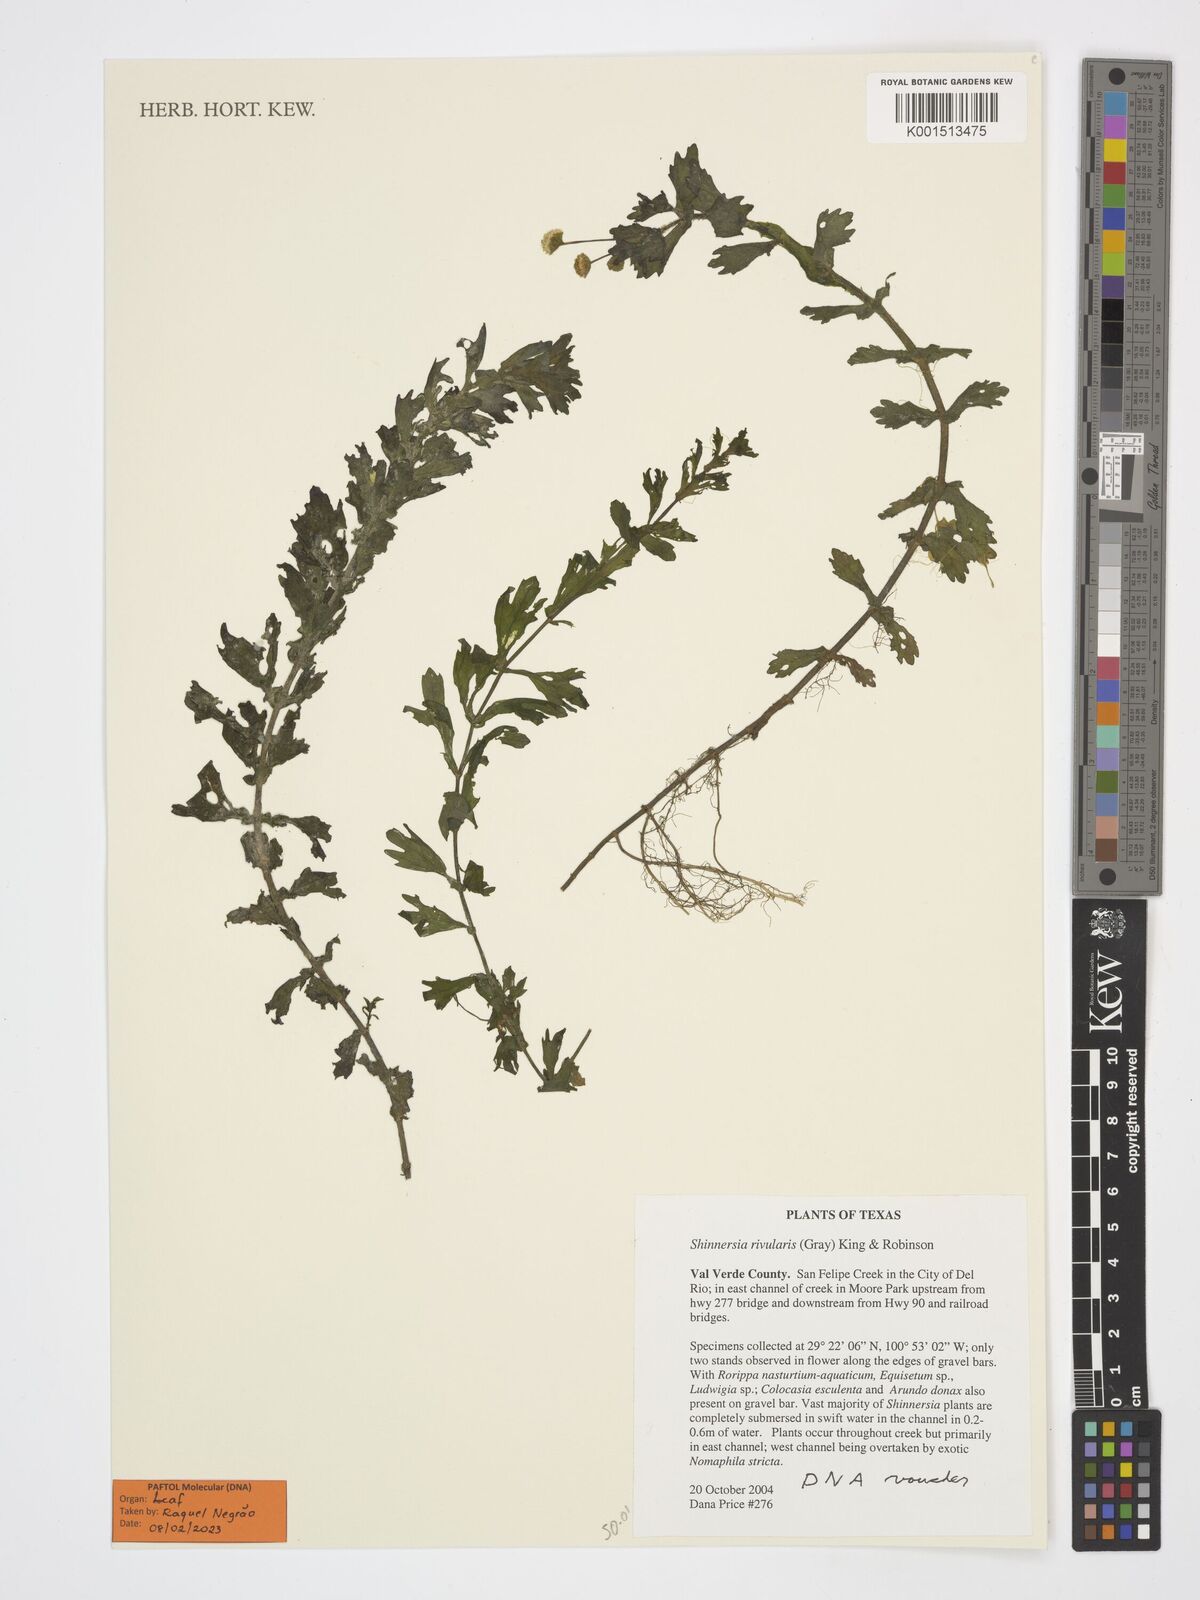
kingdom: Plantae
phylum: Tracheophyta
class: Magnoliopsida
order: Asterales
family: Asteraceae
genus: Shinnersia
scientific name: Shinnersia rivularis
